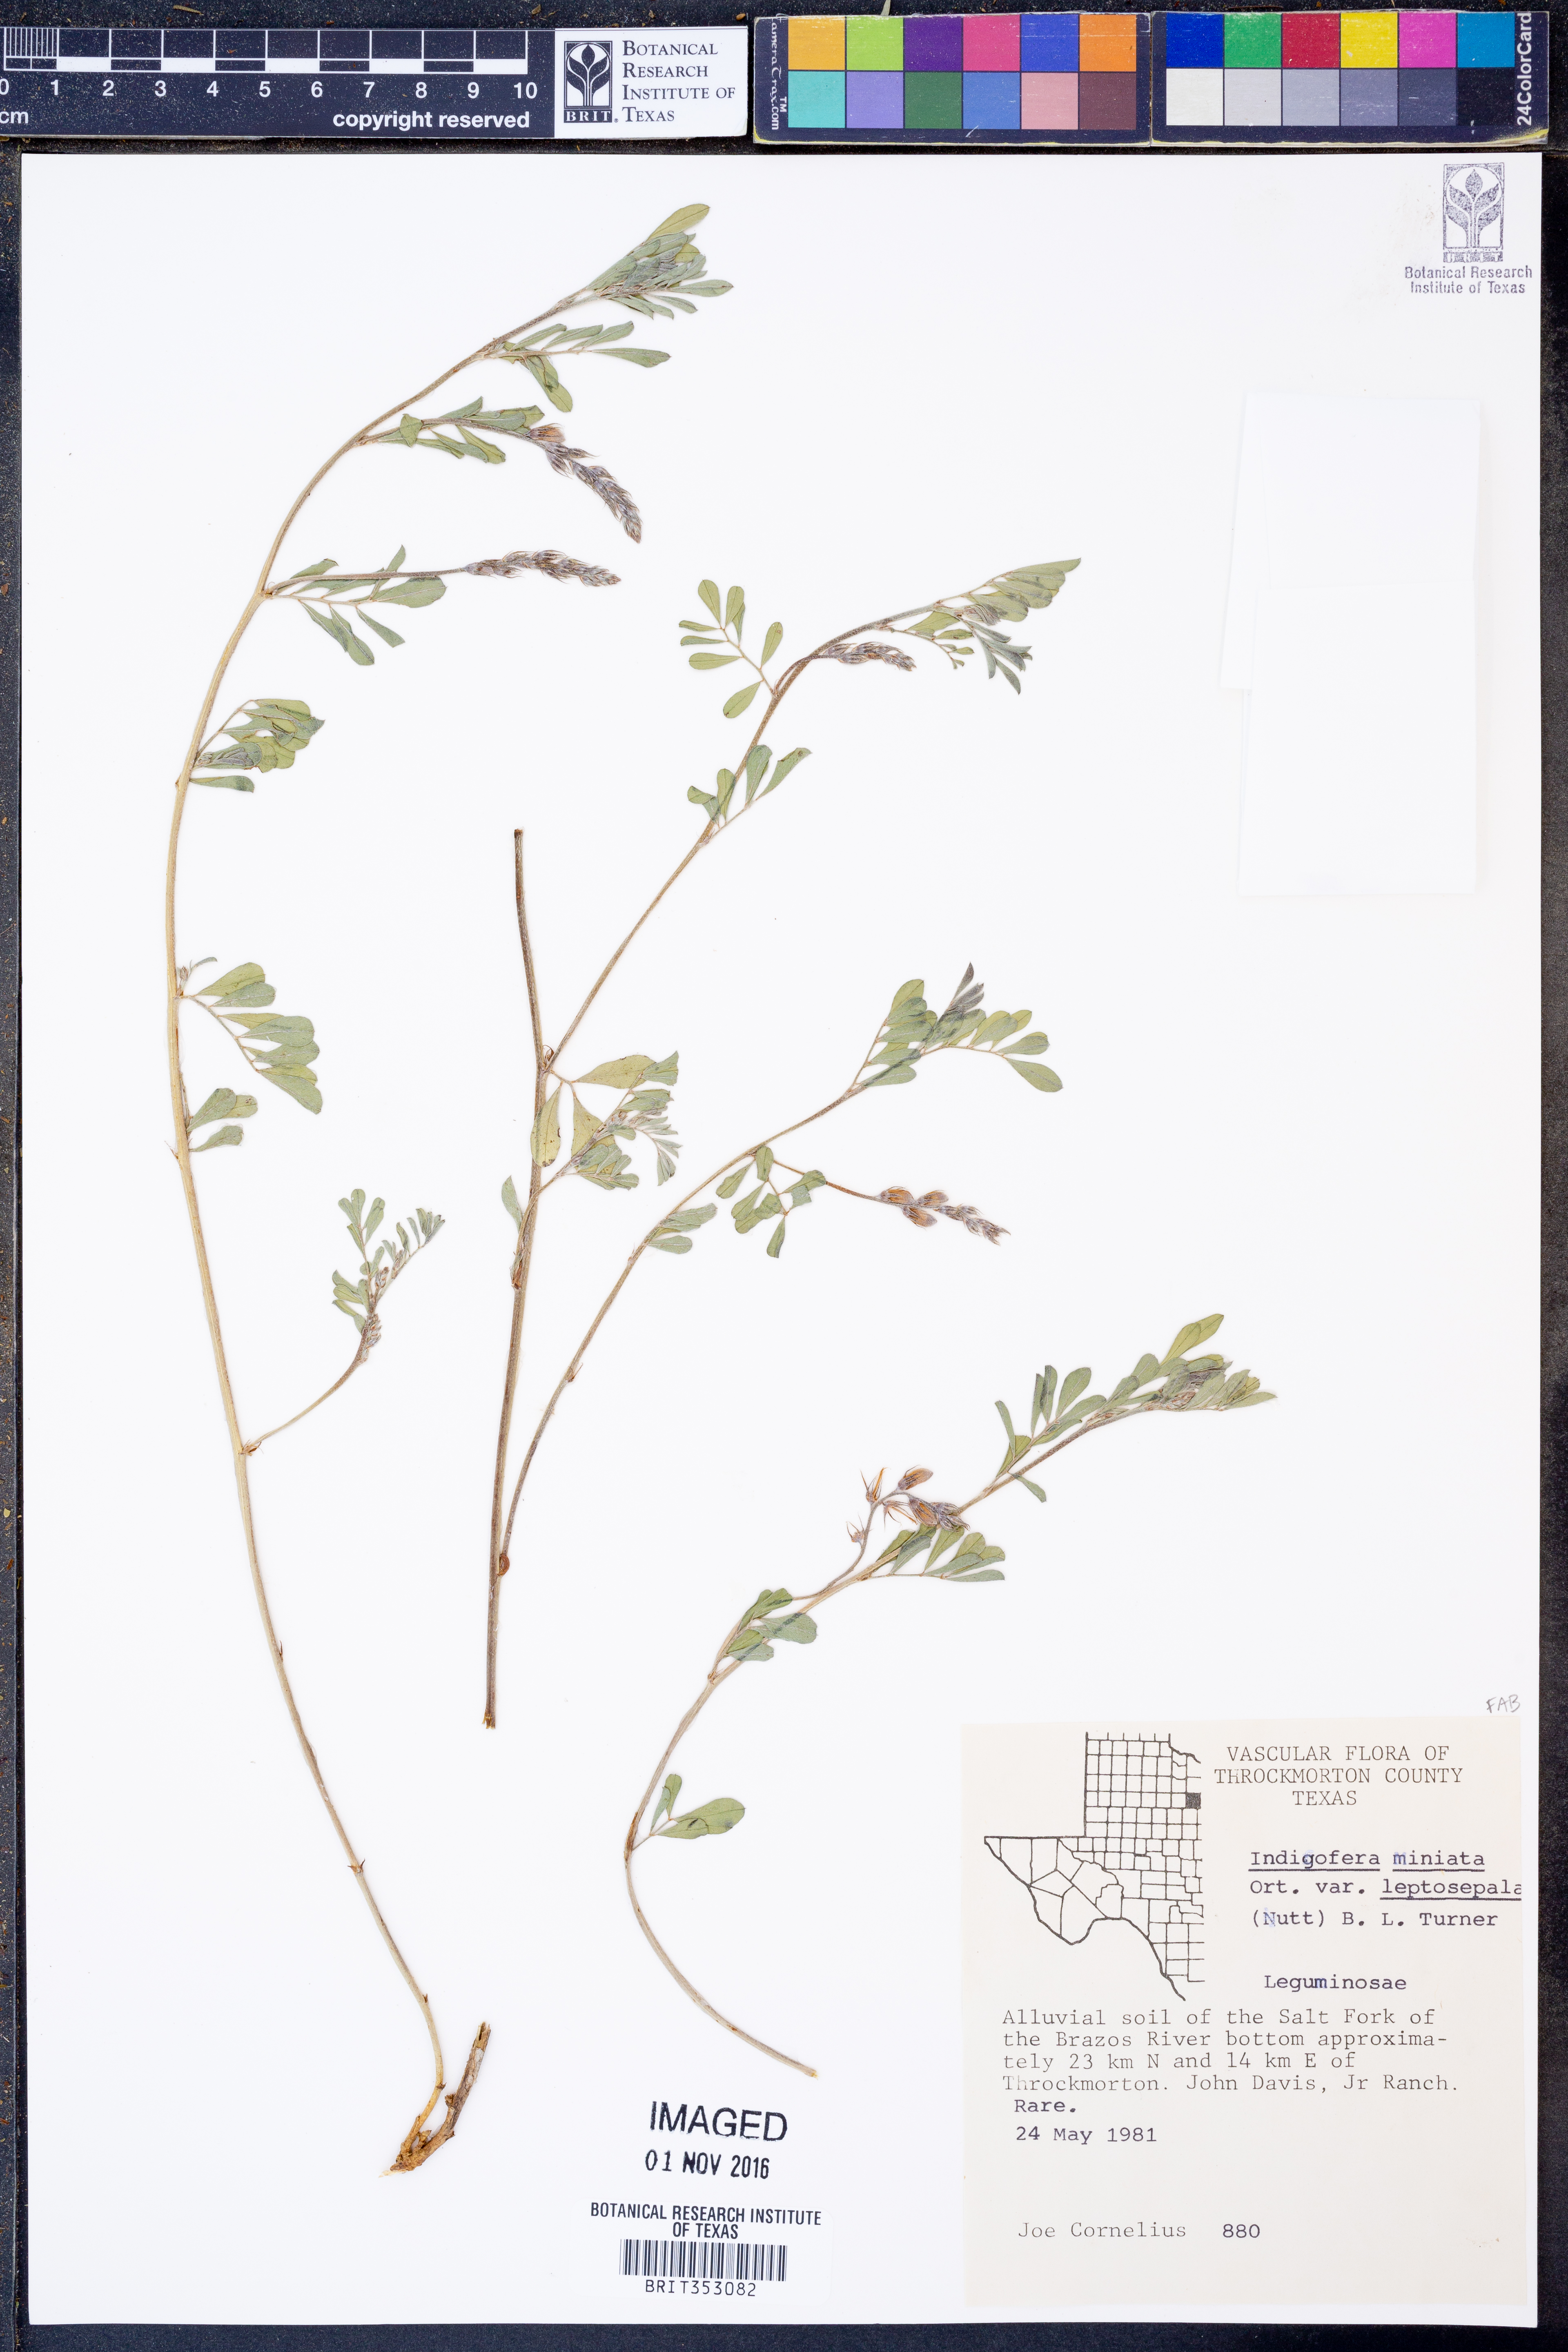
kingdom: Plantae
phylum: Tracheophyta
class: Magnoliopsida
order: Fabales
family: Fabaceae
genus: Indigofera
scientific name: Indigofera miniata
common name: Coast indigo
